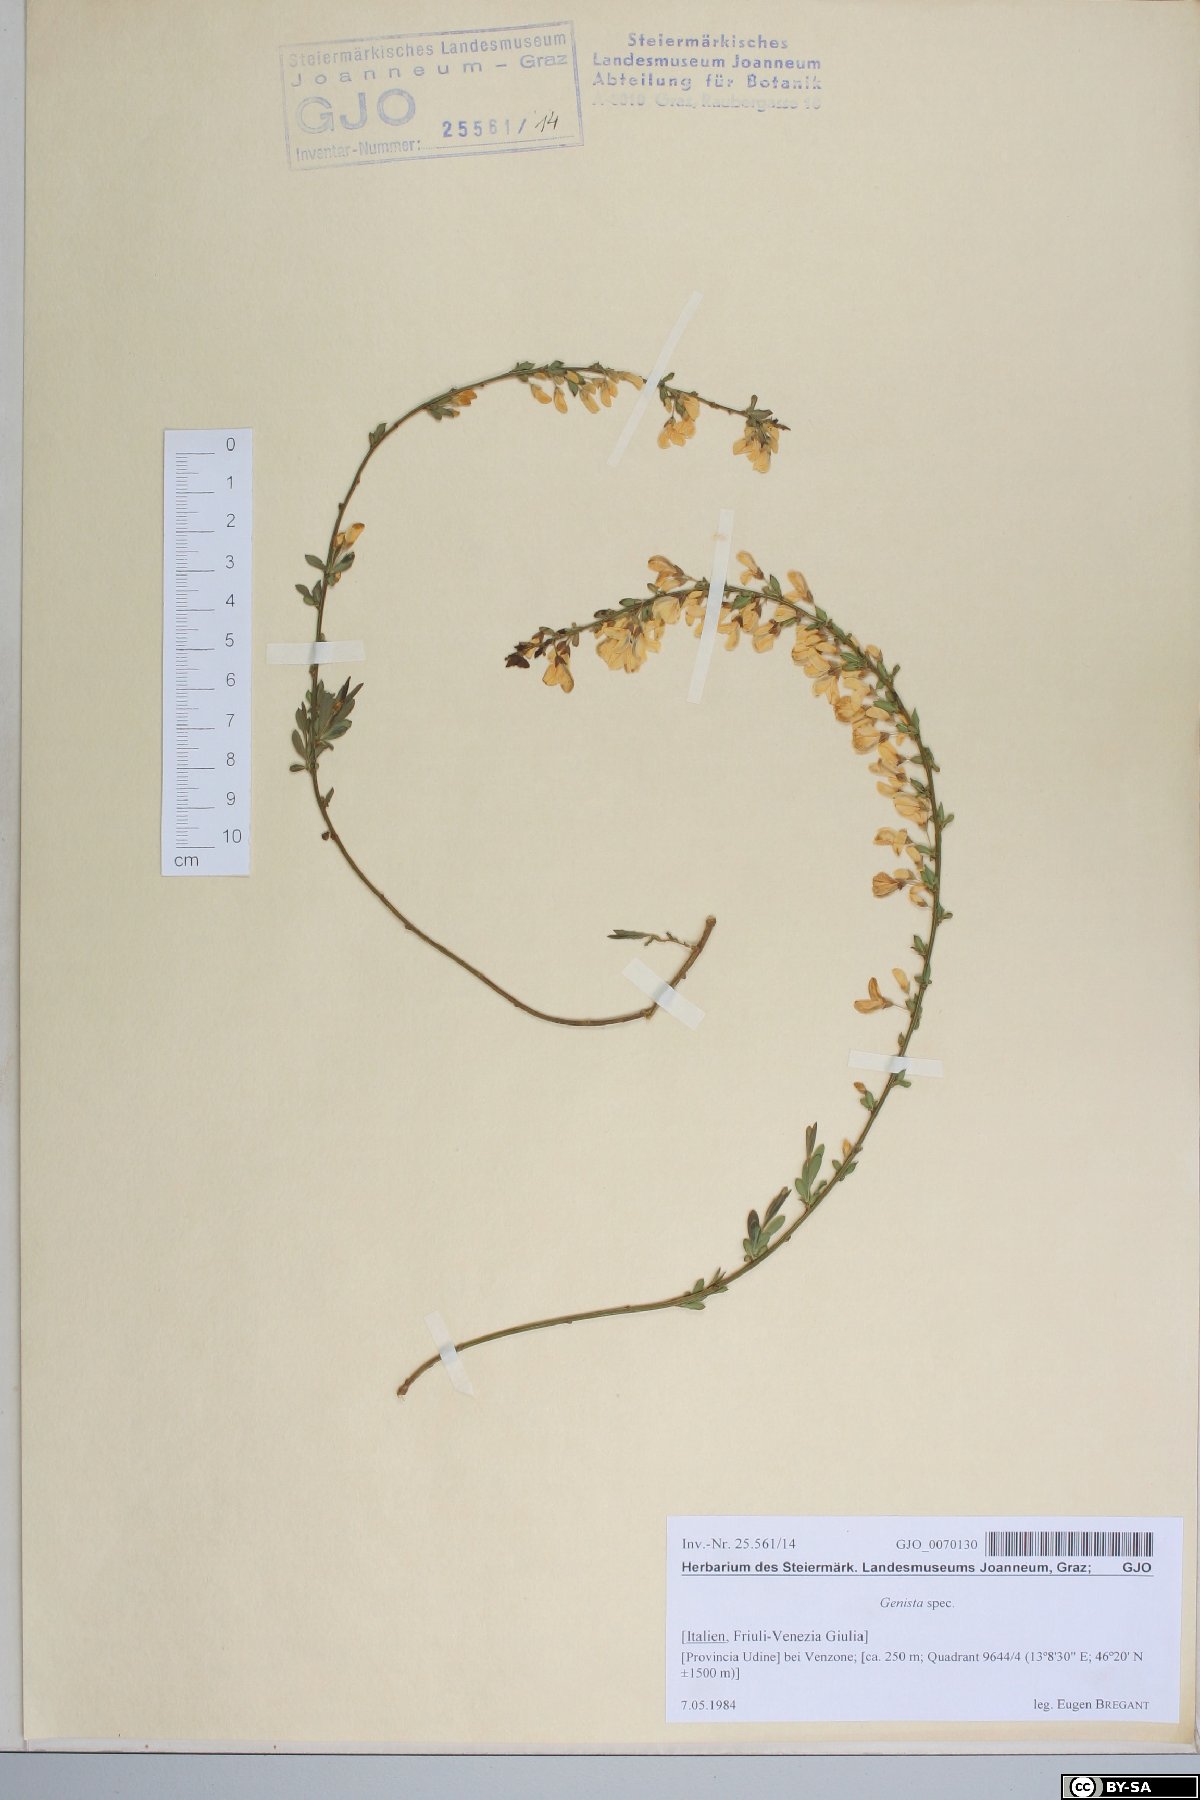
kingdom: Plantae
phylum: Tracheophyta
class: Magnoliopsida
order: Fabales
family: Fabaceae
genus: Genista
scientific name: Genista
